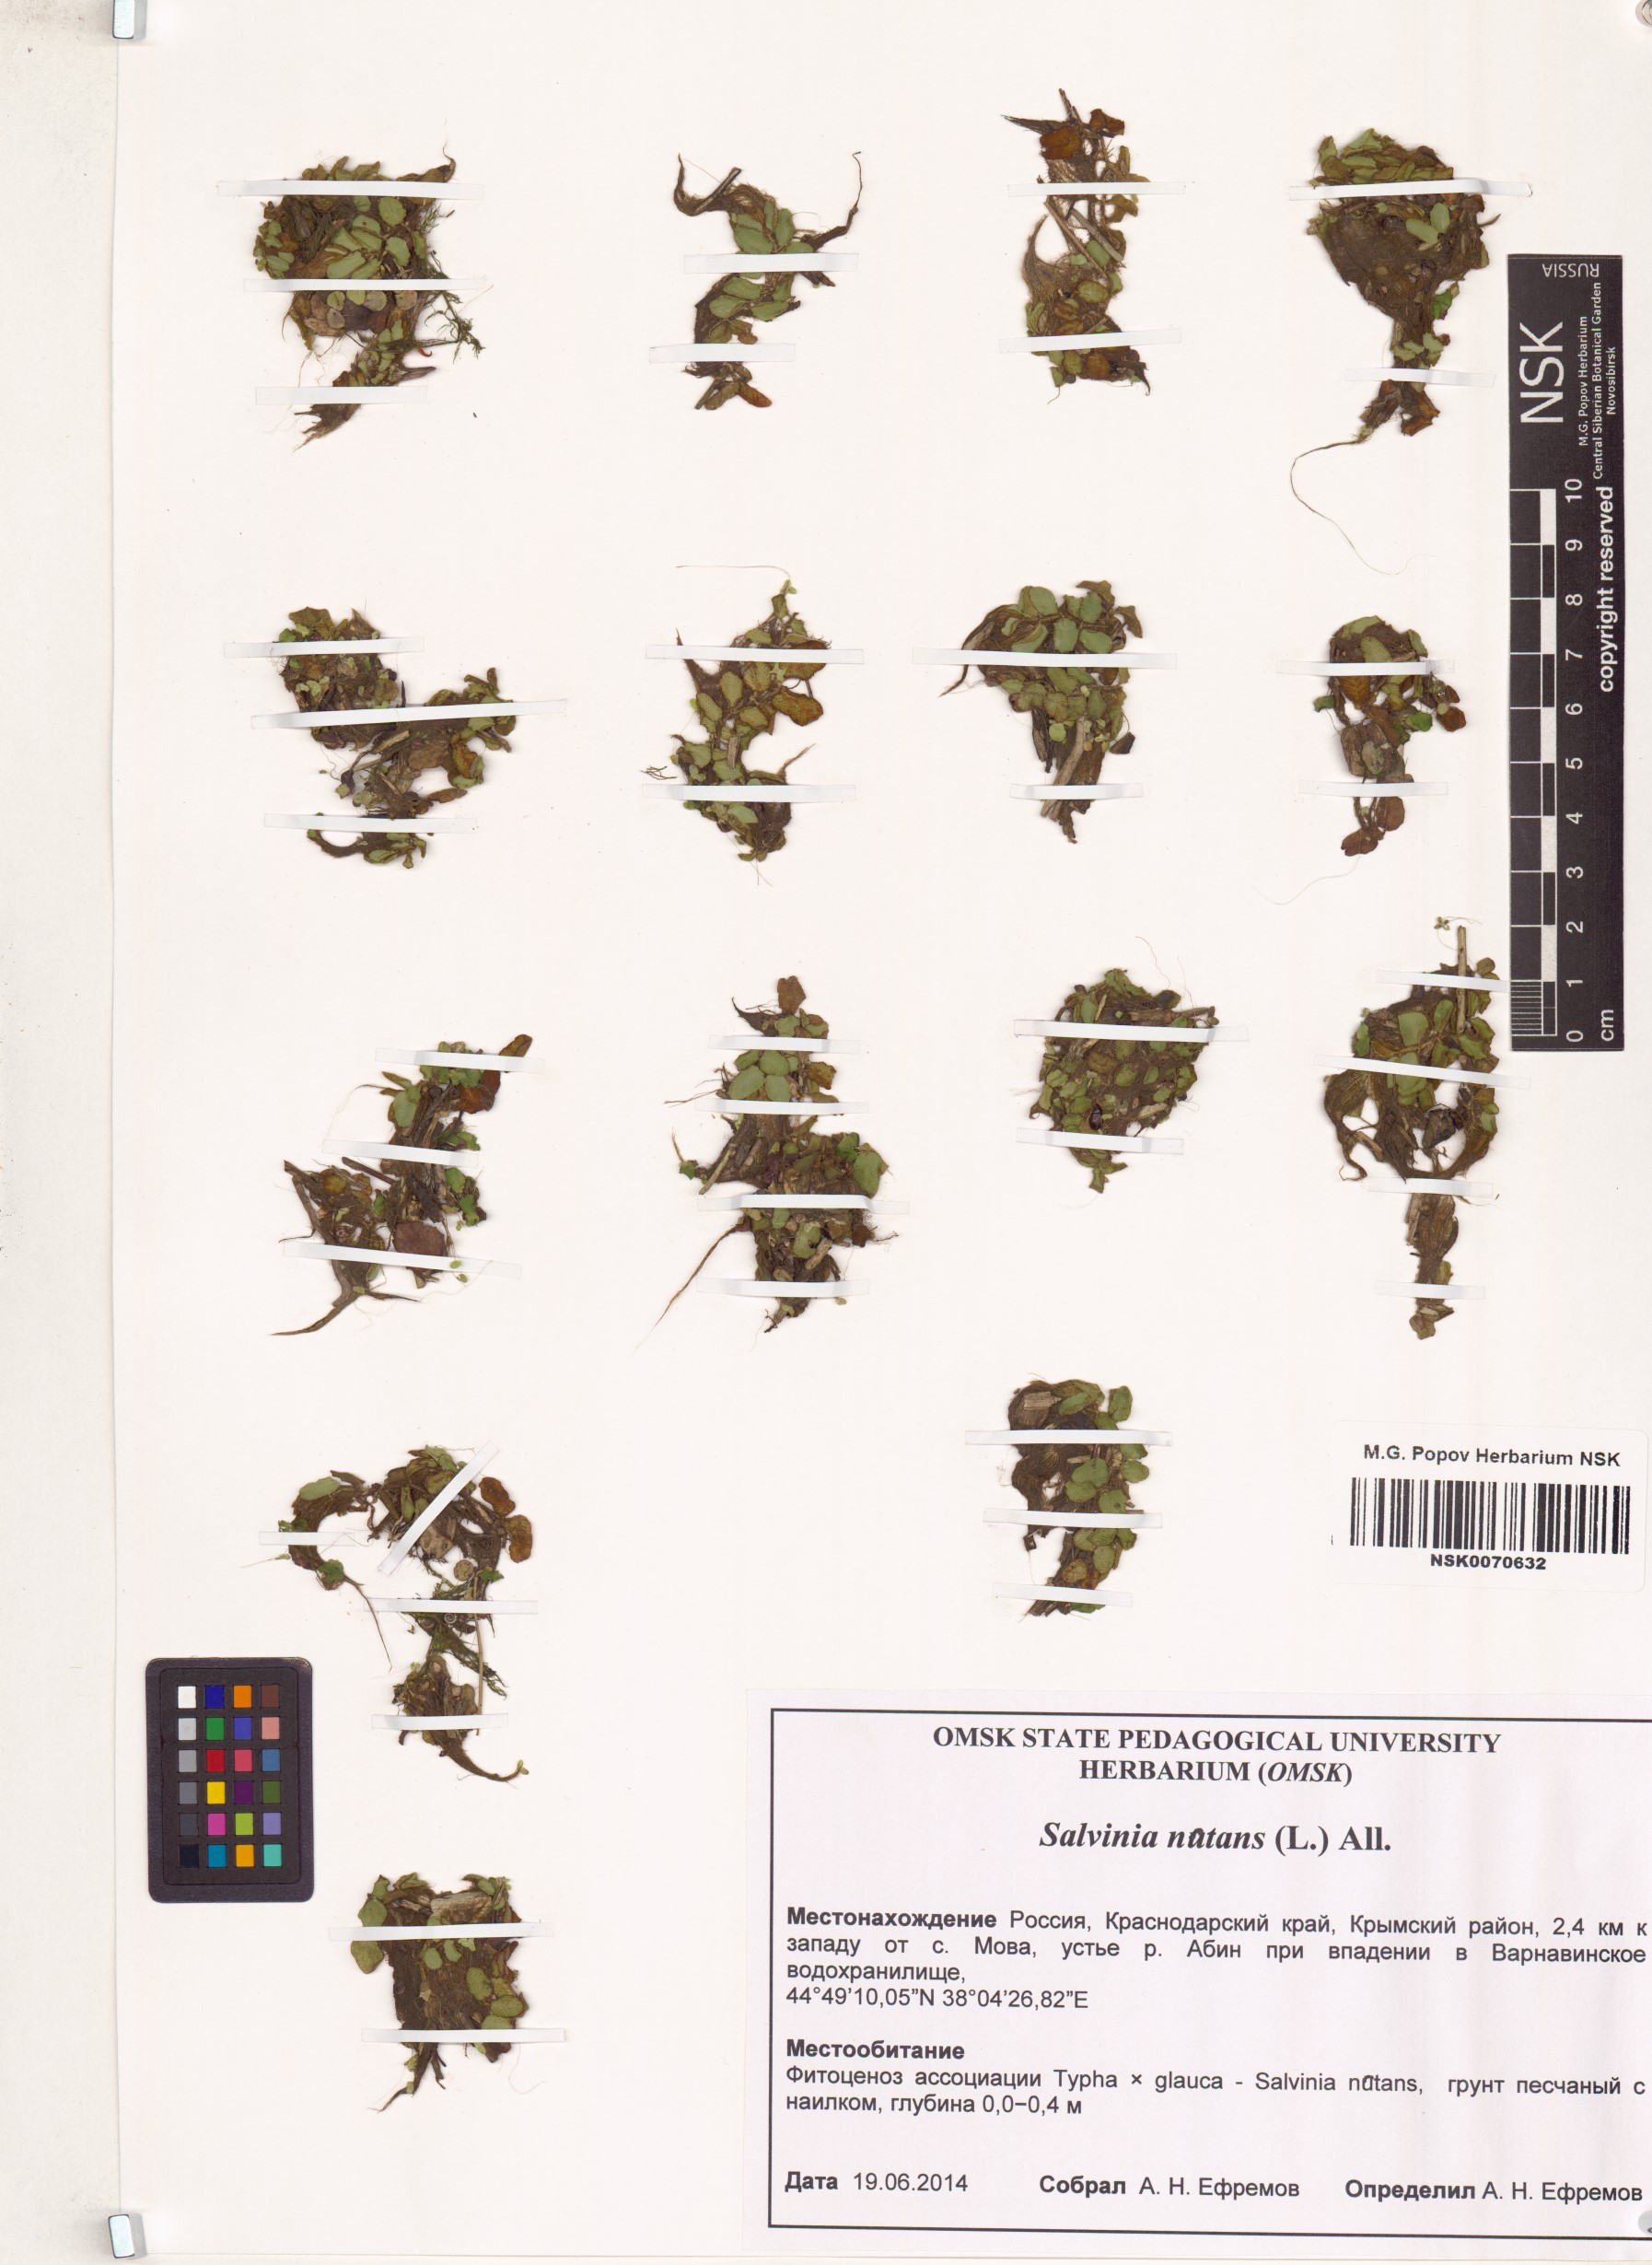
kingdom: Plantae
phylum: Tracheophyta
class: Polypodiopsida
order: Salviniales
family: Salviniaceae
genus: Salvinia
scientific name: Salvinia natans
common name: Floating fern
